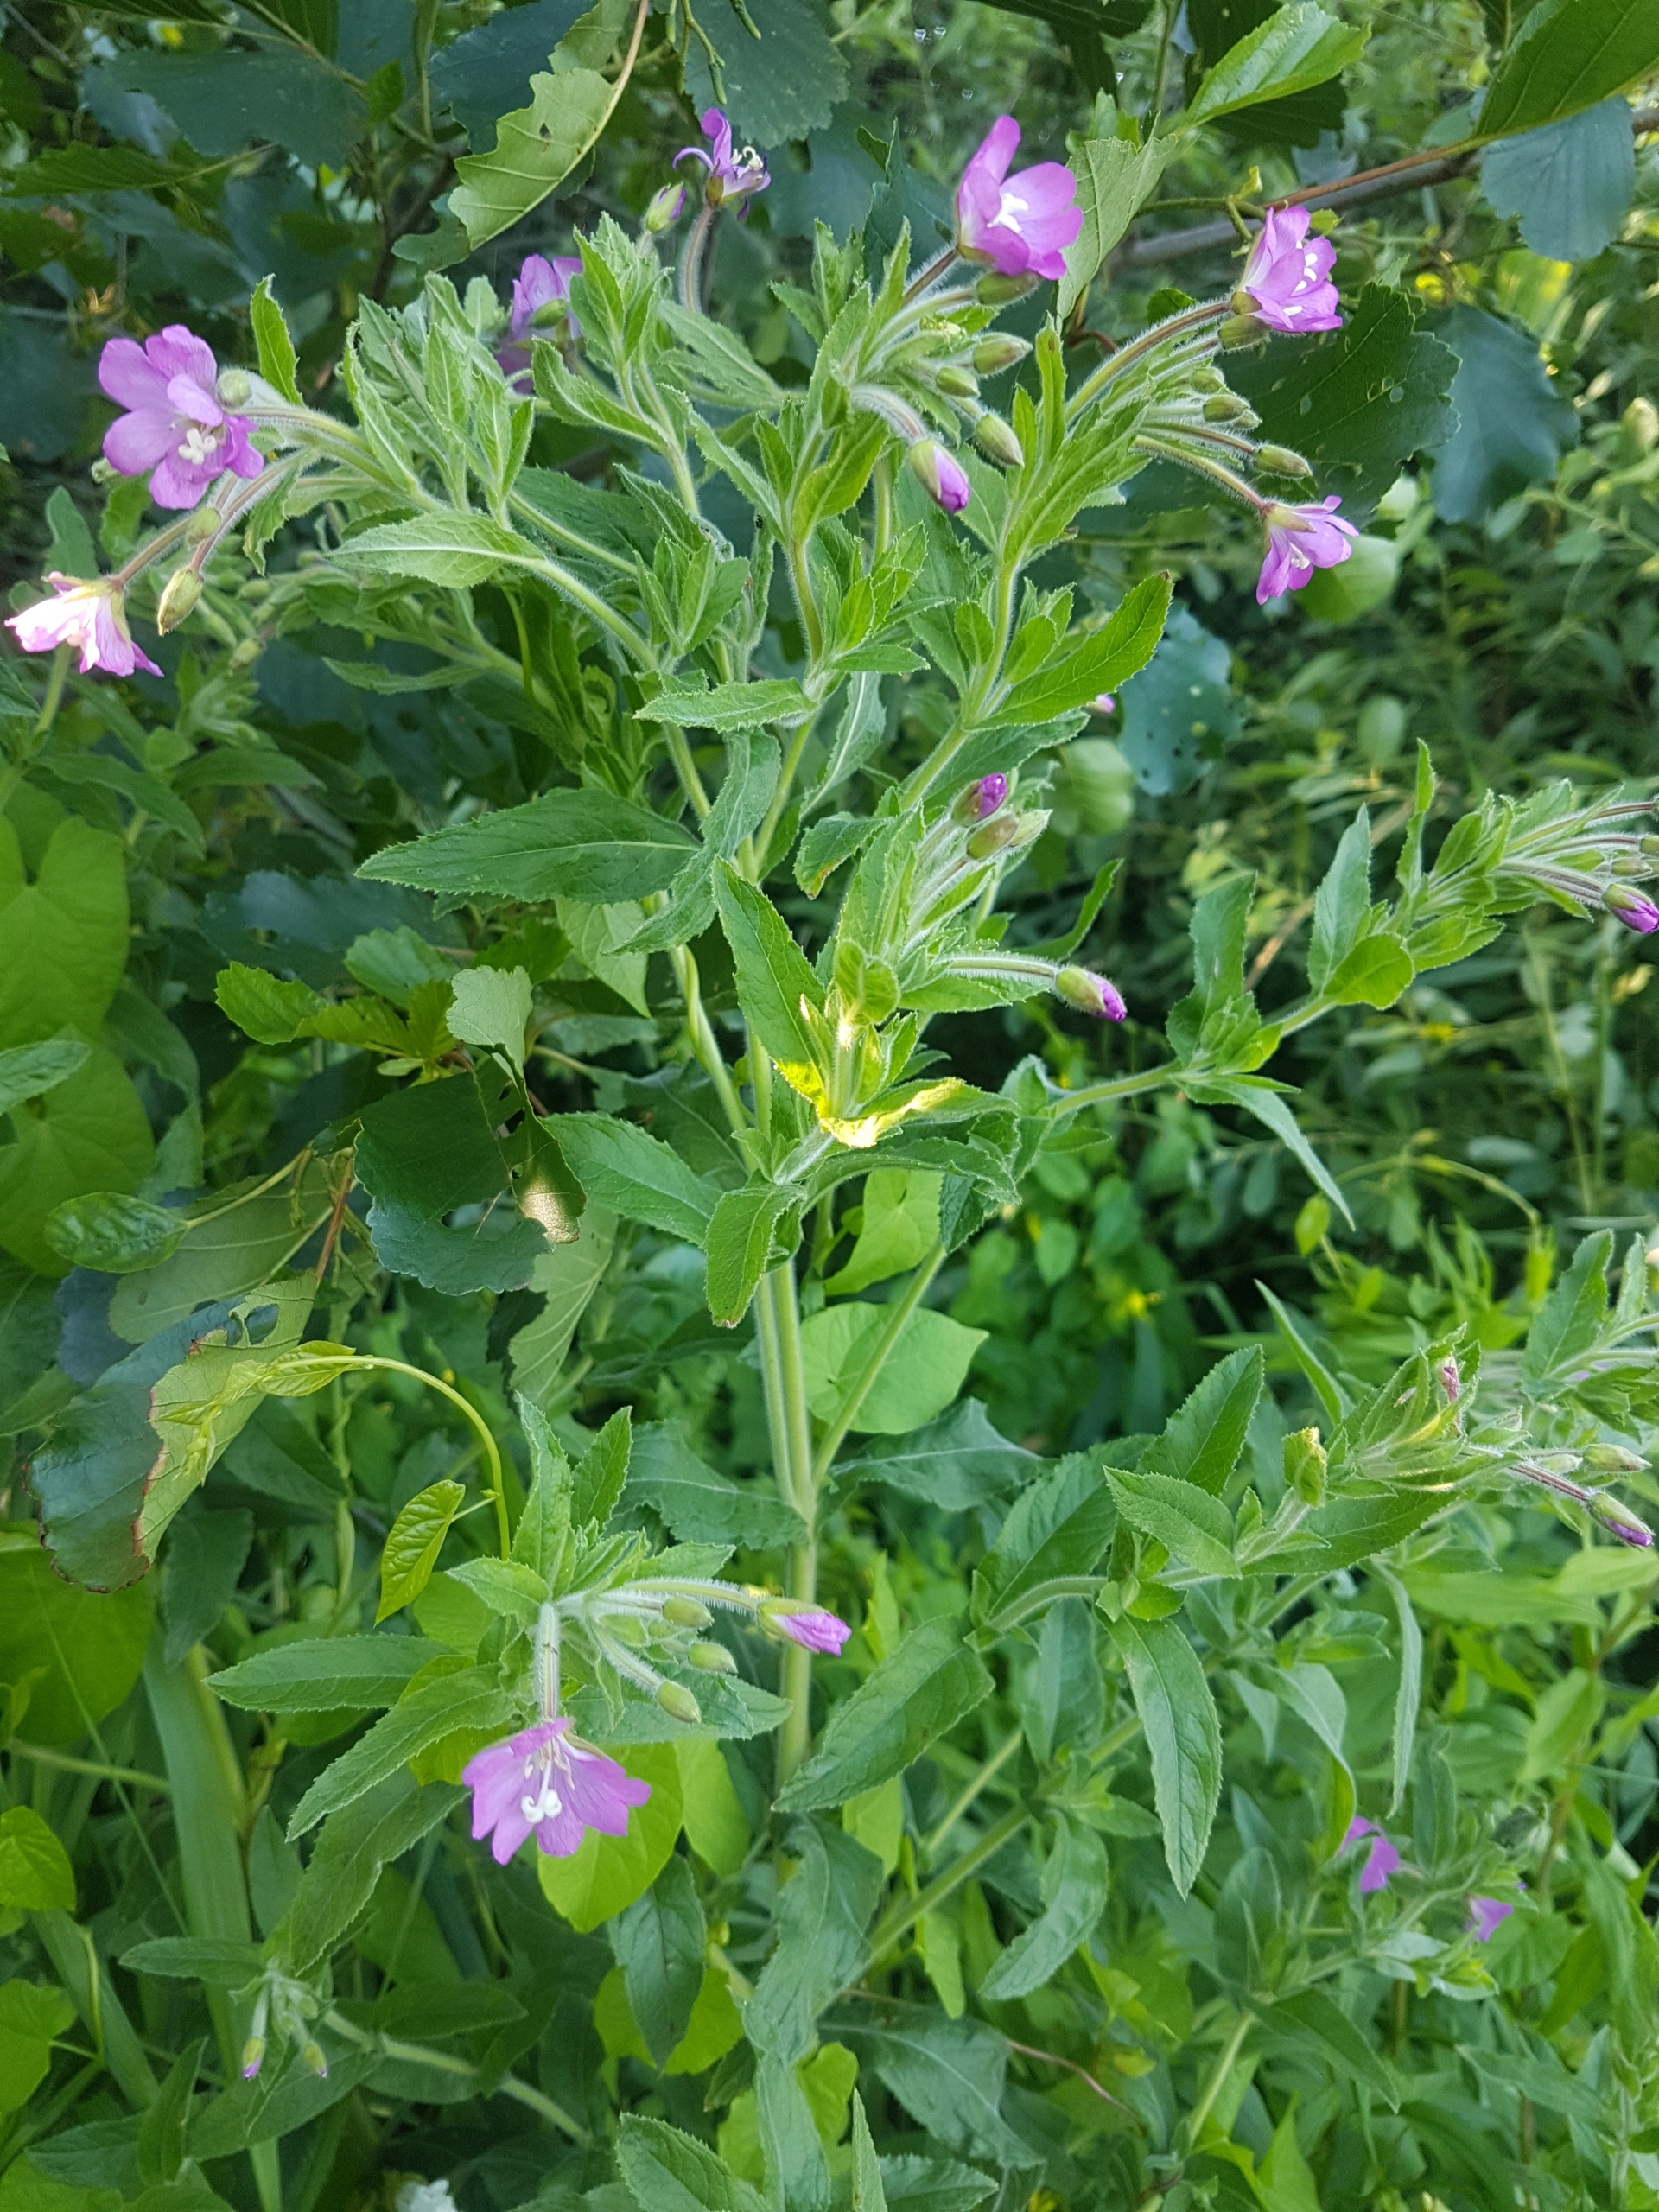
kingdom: Plantae
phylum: Tracheophyta
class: Magnoliopsida
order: Myrtales
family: Onagraceae
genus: Epilobium
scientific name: Epilobium hirsutum
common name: Lådden dueurt
